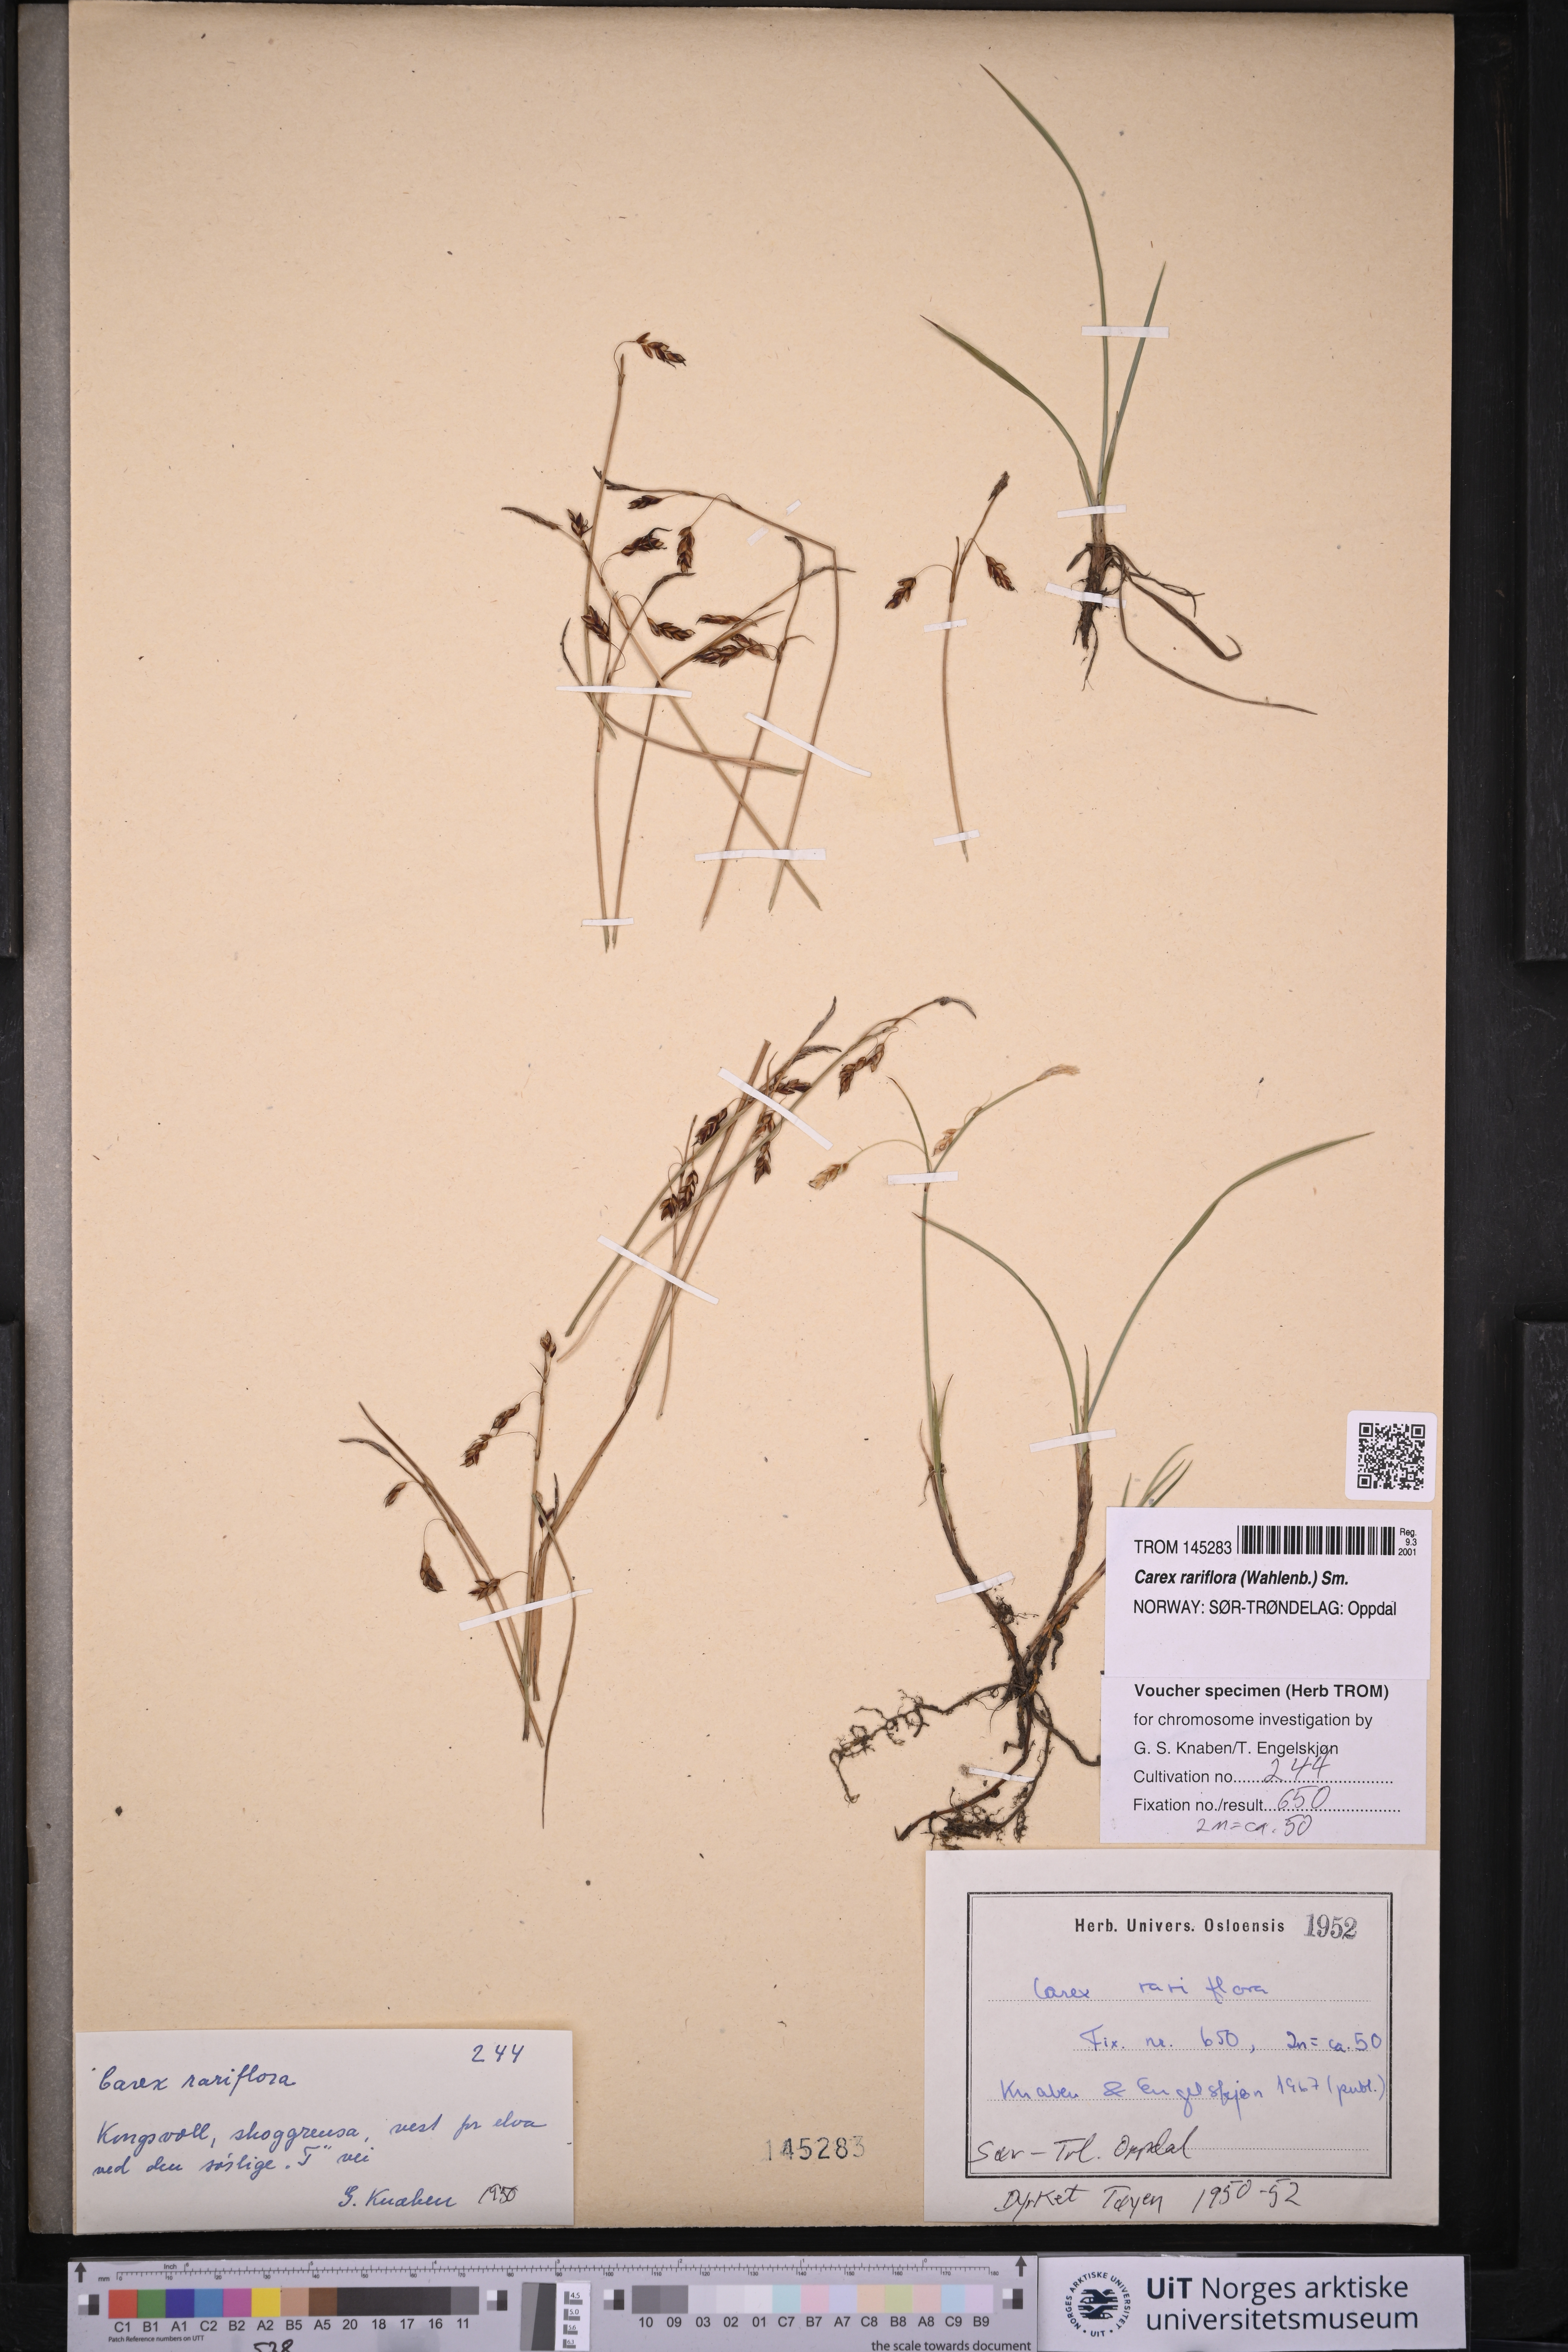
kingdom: Plantae
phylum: Tracheophyta
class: Liliopsida
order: Poales
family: Cyperaceae
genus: Carex
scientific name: Carex rariflora
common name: Loose-flowered alpine sedge
